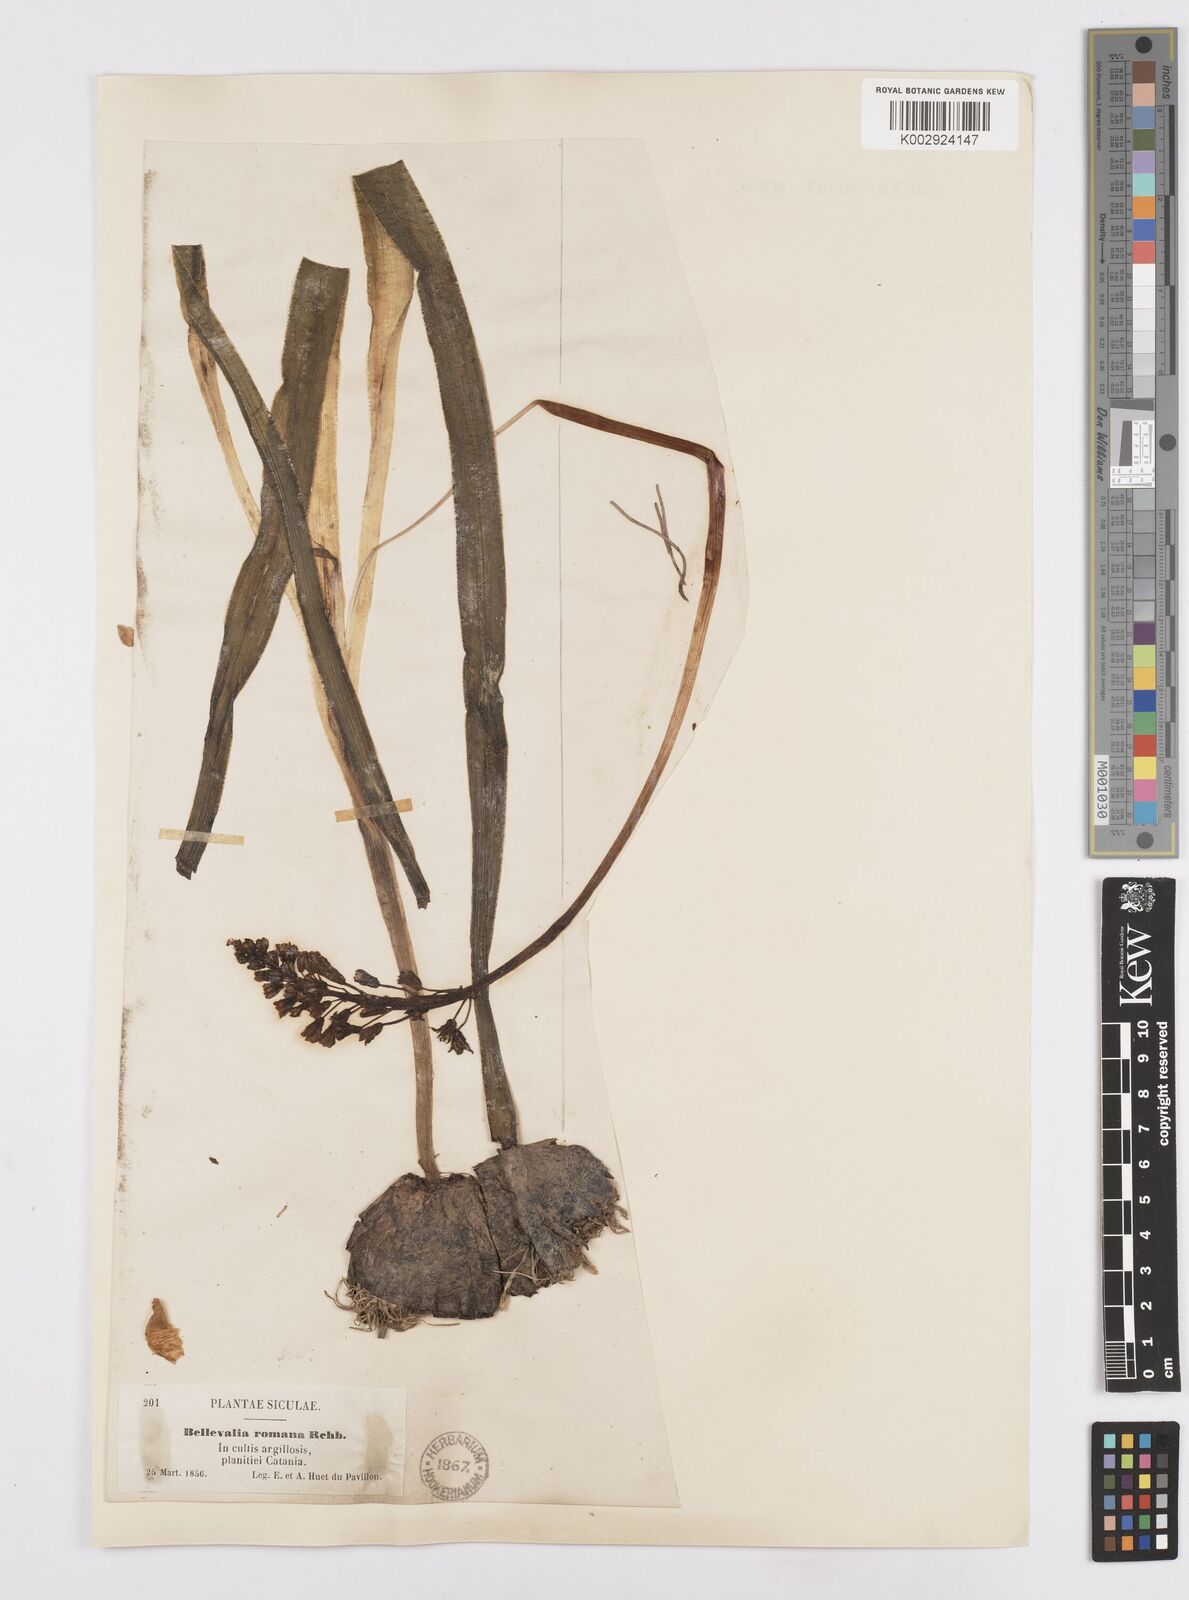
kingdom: Plantae
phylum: Tracheophyta
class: Liliopsida
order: Asparagales
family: Asparagaceae
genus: Bellevalia
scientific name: Bellevalia
